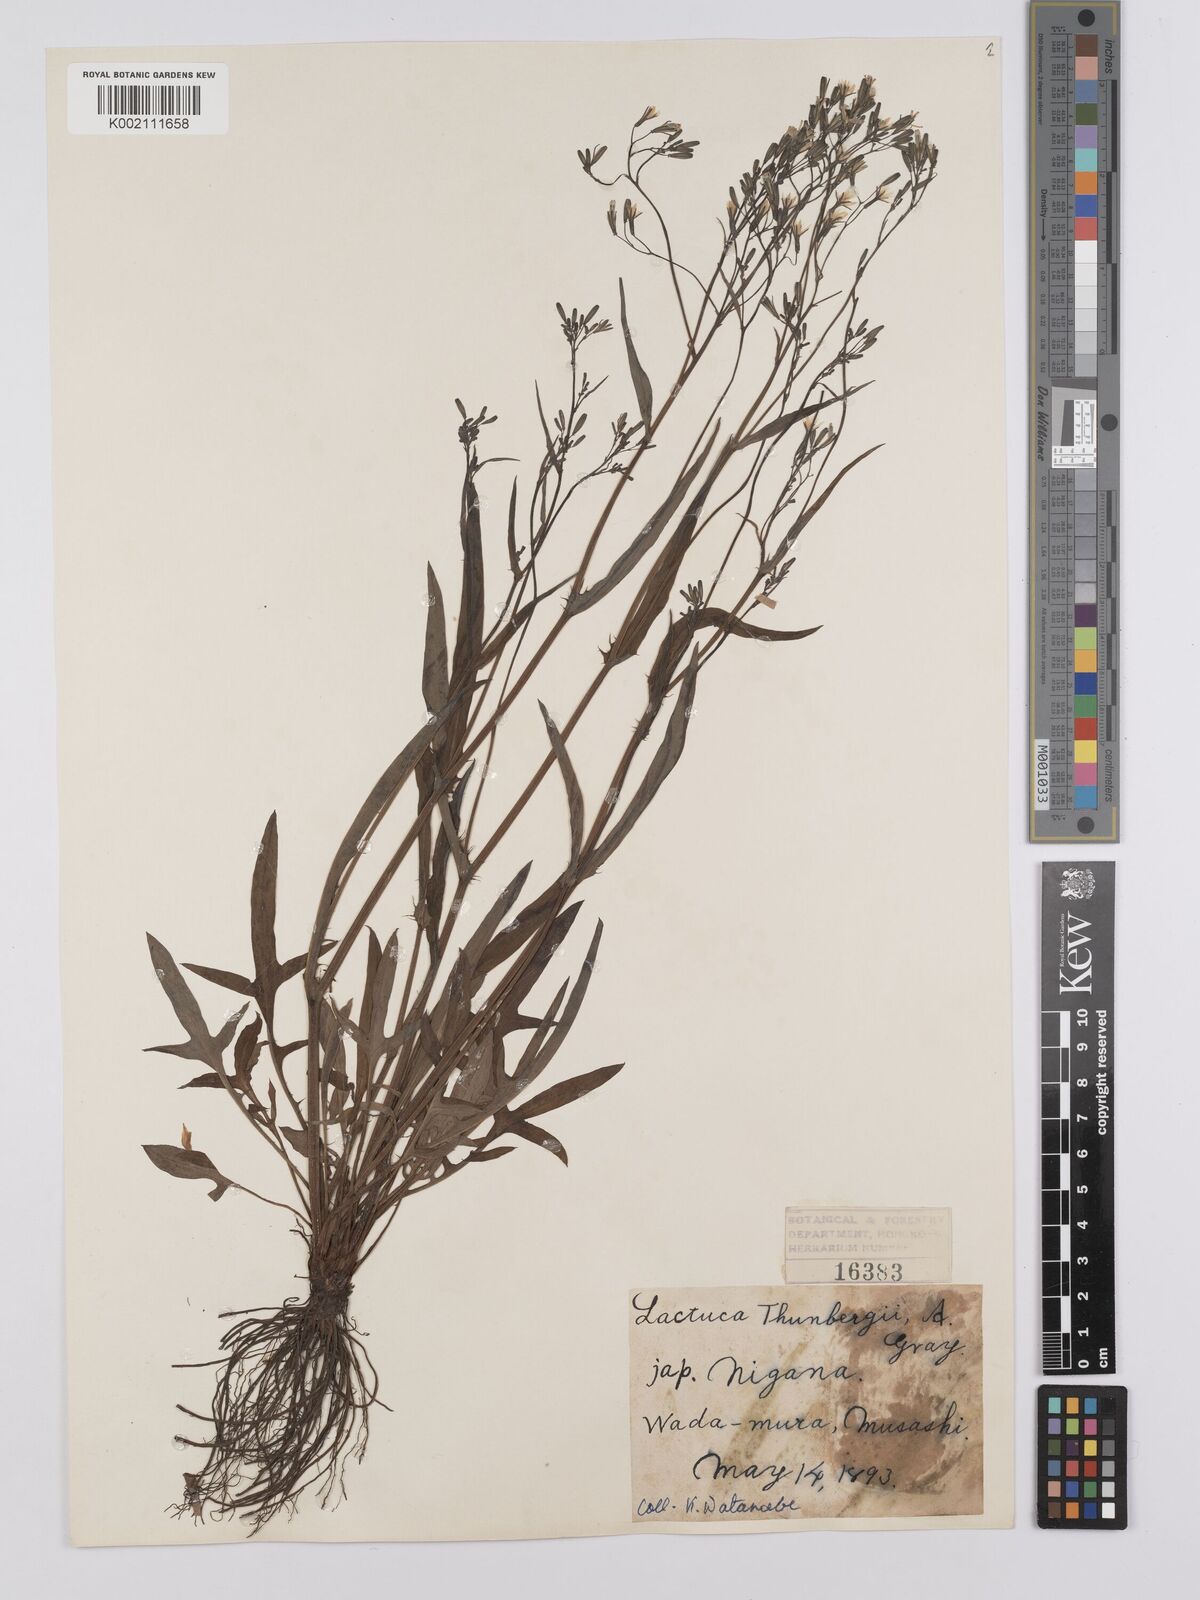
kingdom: Plantae
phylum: Tracheophyta
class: Magnoliopsida
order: Asterales
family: Asteraceae
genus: Ixeridium
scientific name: Ixeridium dentatum
